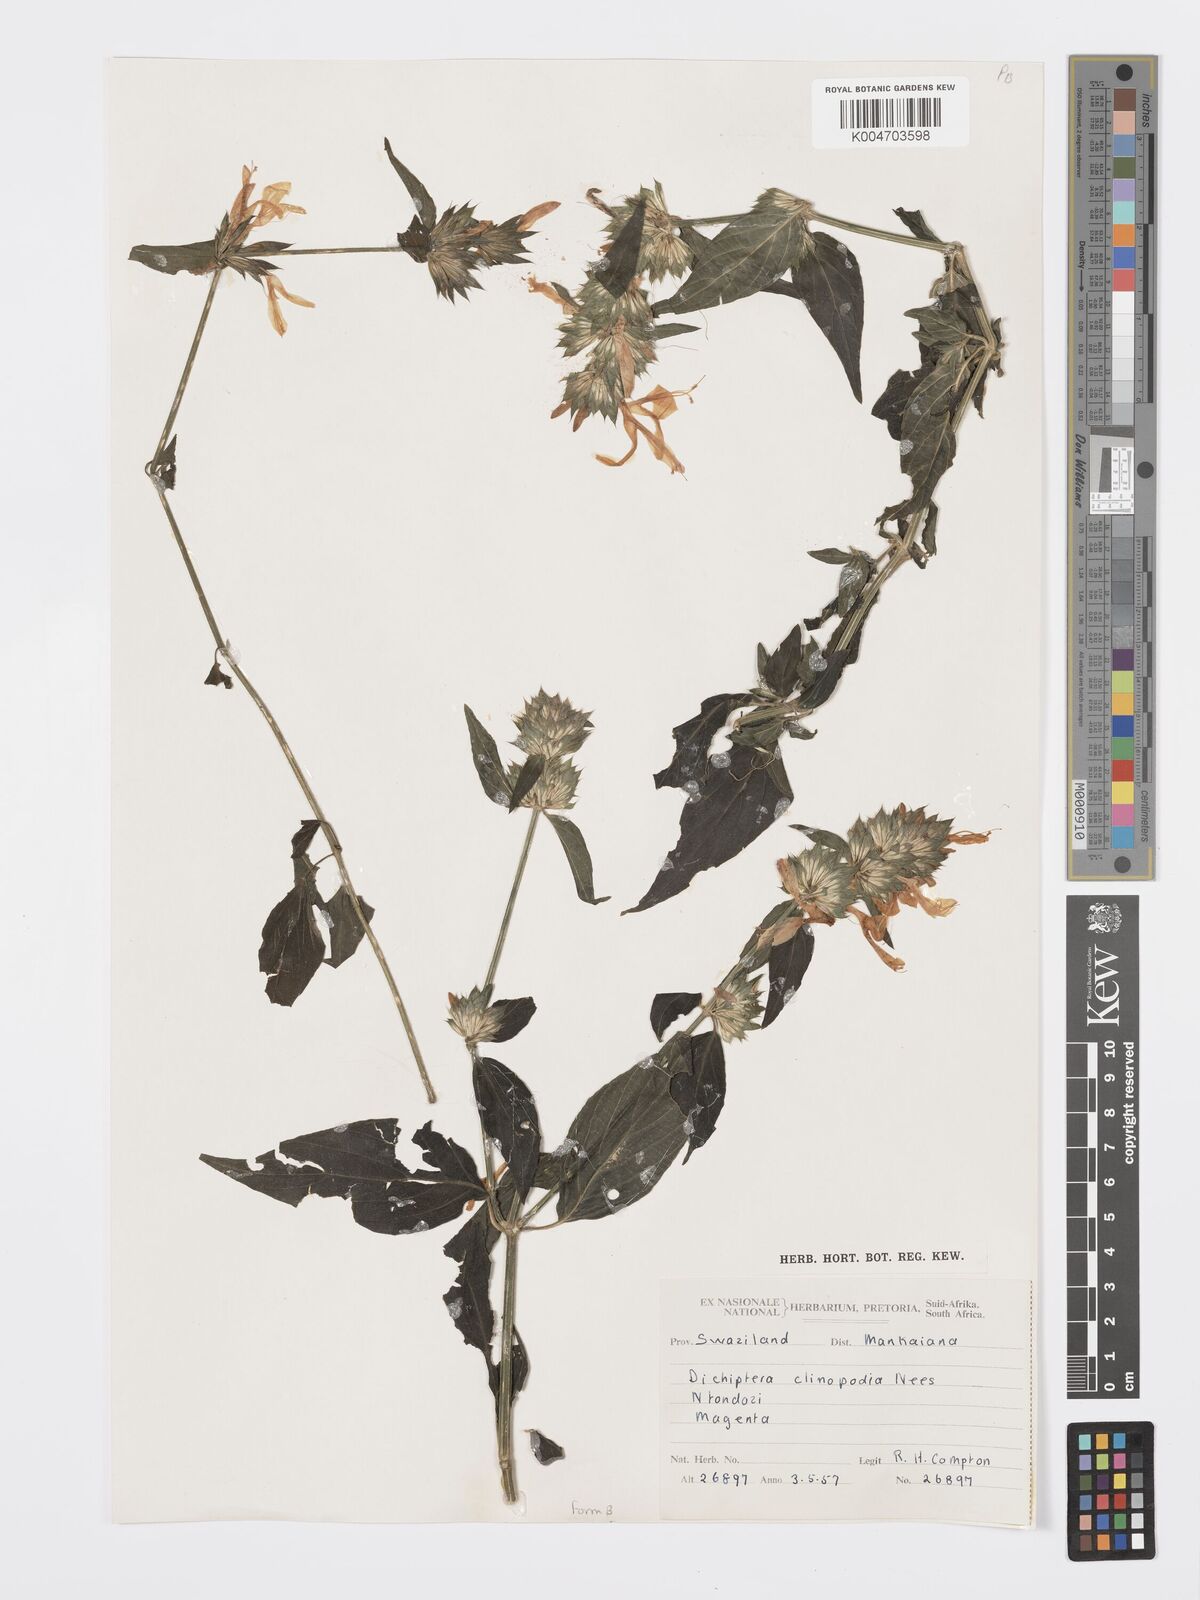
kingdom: Plantae
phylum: Tracheophyta
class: Magnoliopsida
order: Lamiales
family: Acanthaceae
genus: Dicliptera
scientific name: Dicliptera clinopodia
